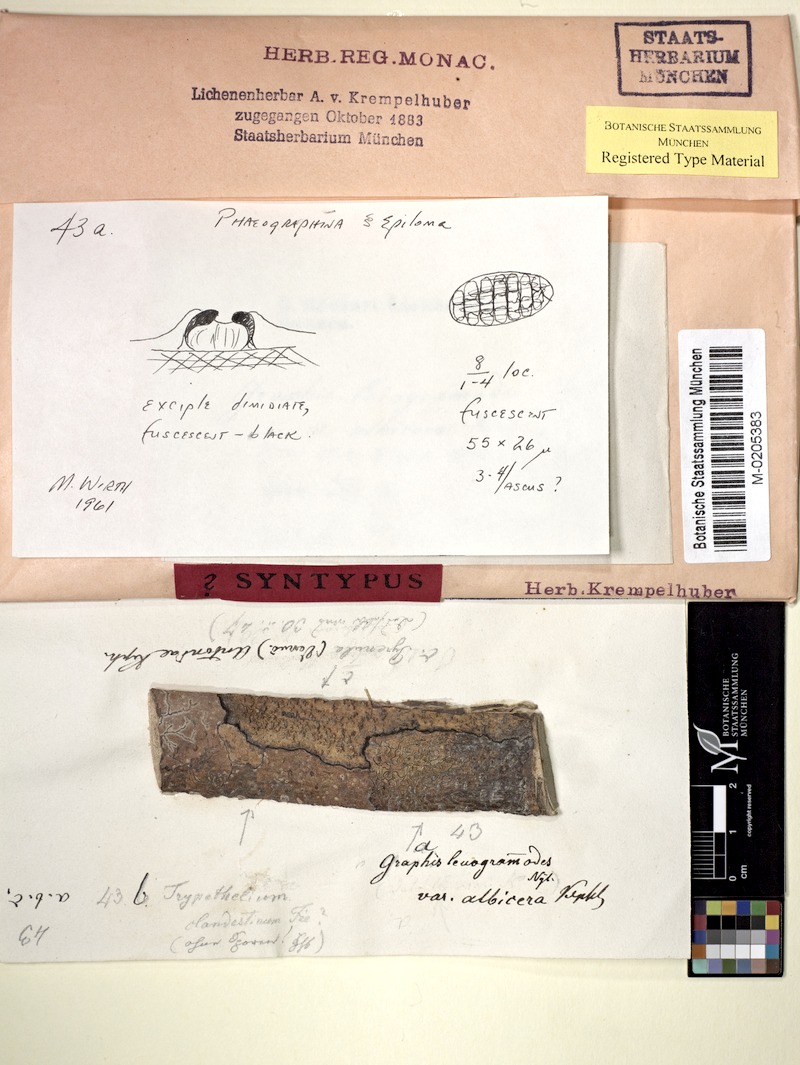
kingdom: Fungi
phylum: Ascomycota
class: Lecanoromycetes
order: Ostropales
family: Graphidaceae
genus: Phaeographis
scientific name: Phaeographis leiogrammodes
